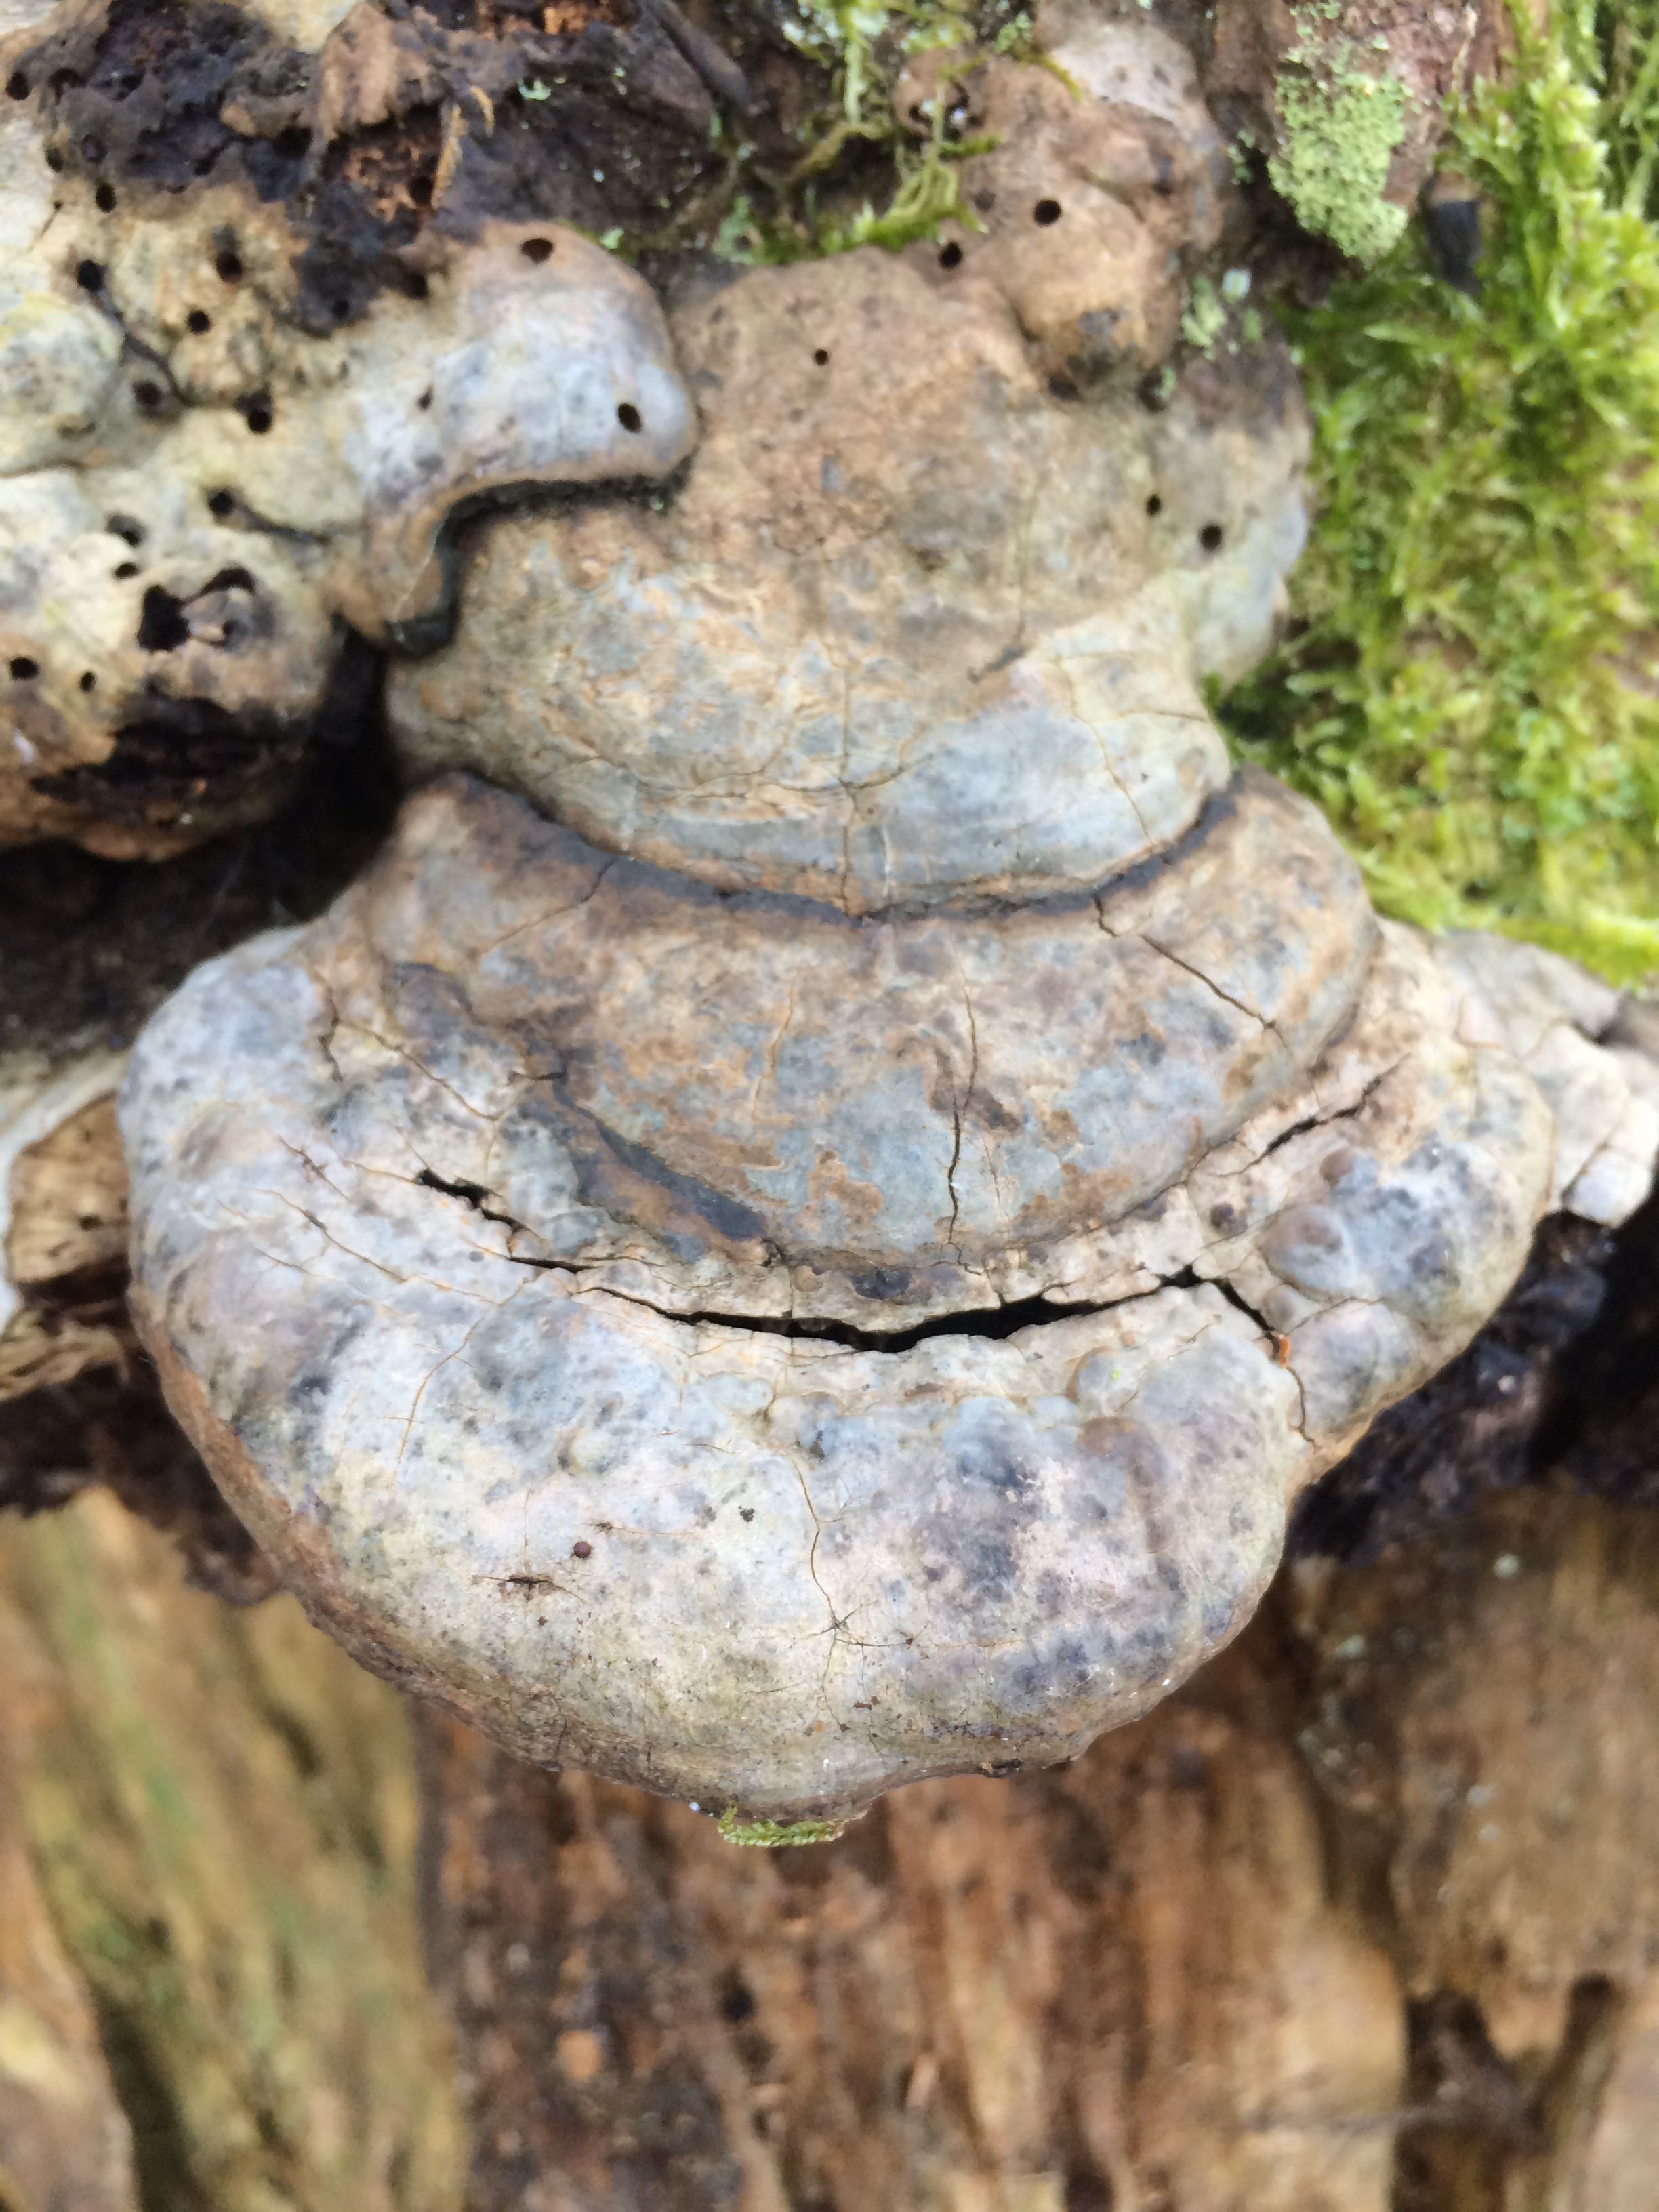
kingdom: Fungi
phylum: Basidiomycota
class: Agaricomycetes
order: Polyporales
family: Polyporaceae
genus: Fomes
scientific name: Fomes fomentarius
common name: tøndersvamp
